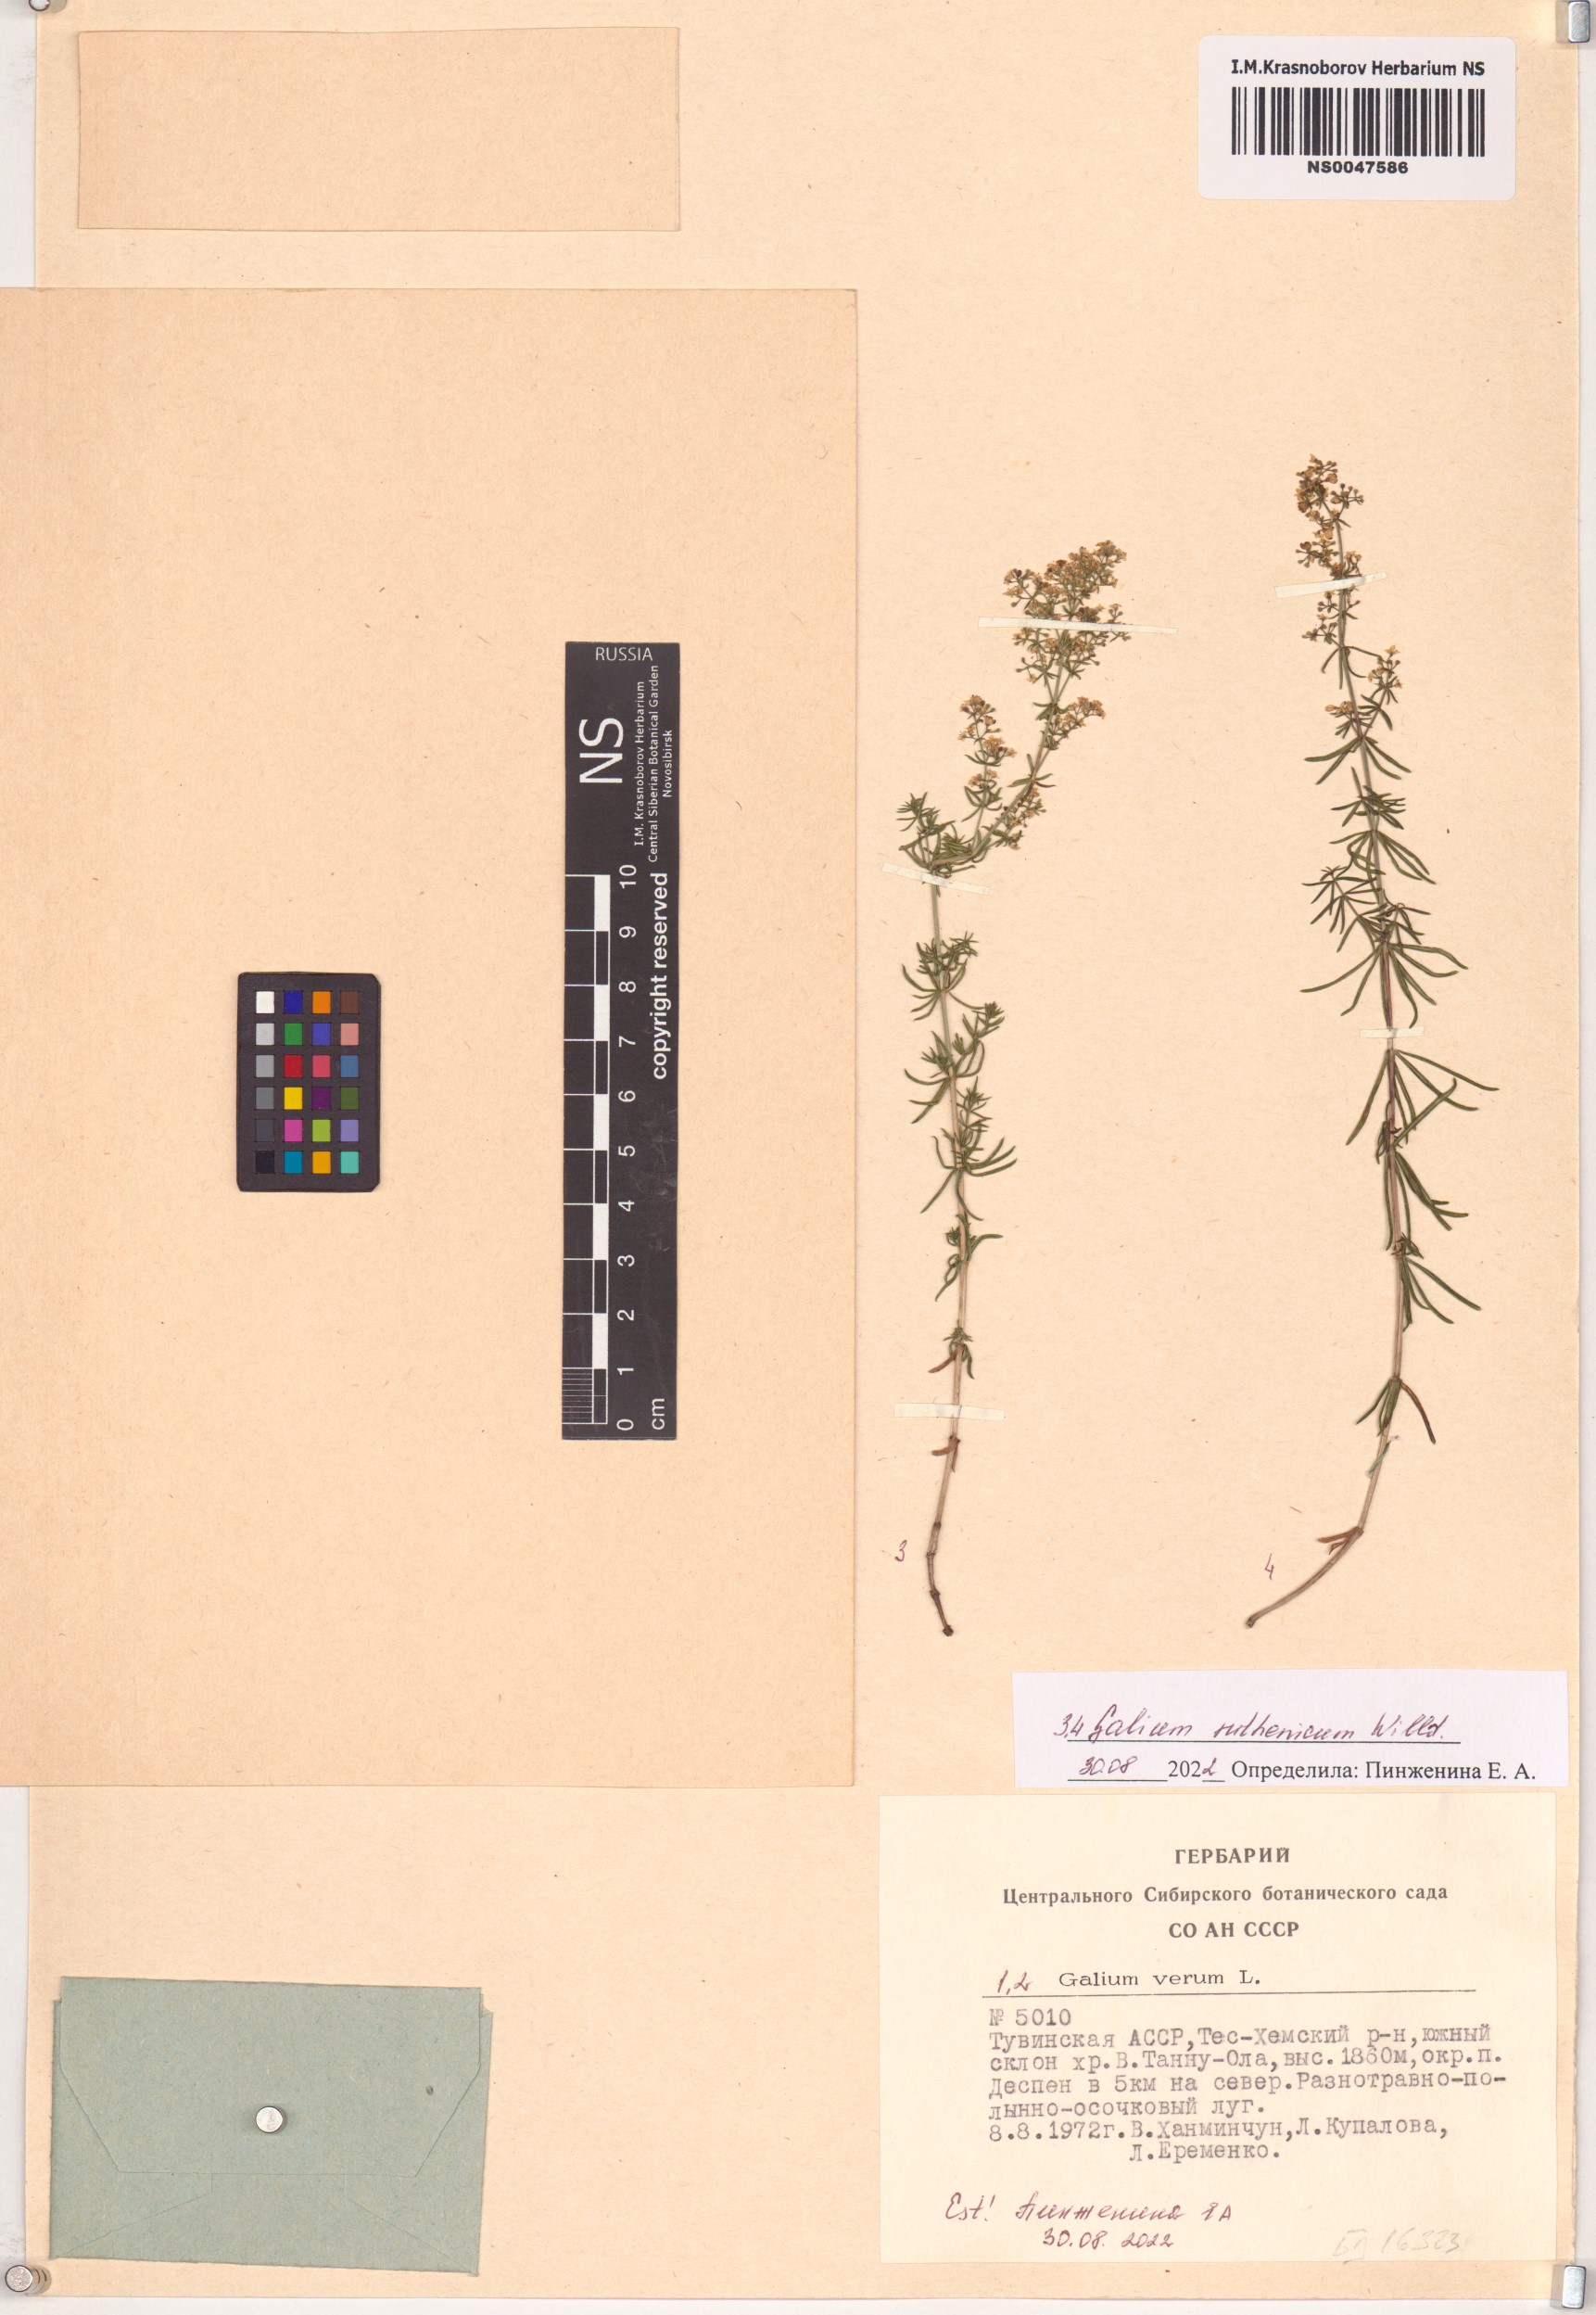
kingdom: Plantae
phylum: Tracheophyta
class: Magnoliopsida
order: Gentianales
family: Rubiaceae
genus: Galium
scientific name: Galium verum
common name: Lady's bedstraw
